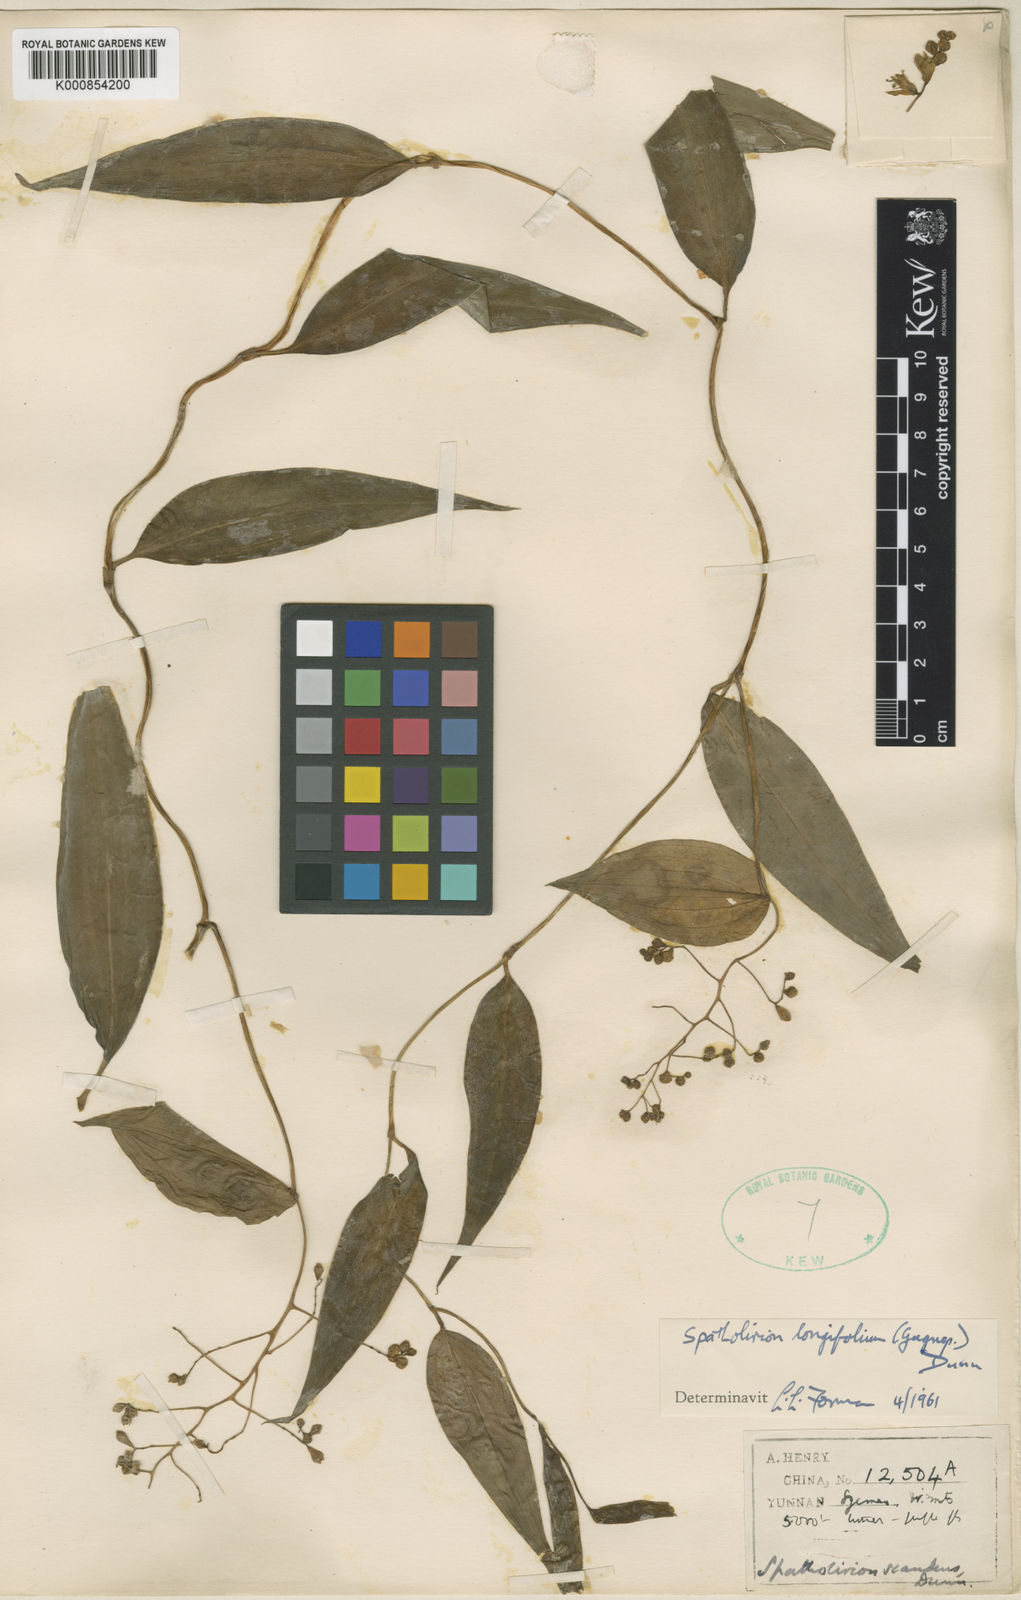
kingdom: Plantae
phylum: Tracheophyta
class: Liliopsida
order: Commelinales
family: Commelinaceae
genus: Spatholirion
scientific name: Spatholirion longifolium
